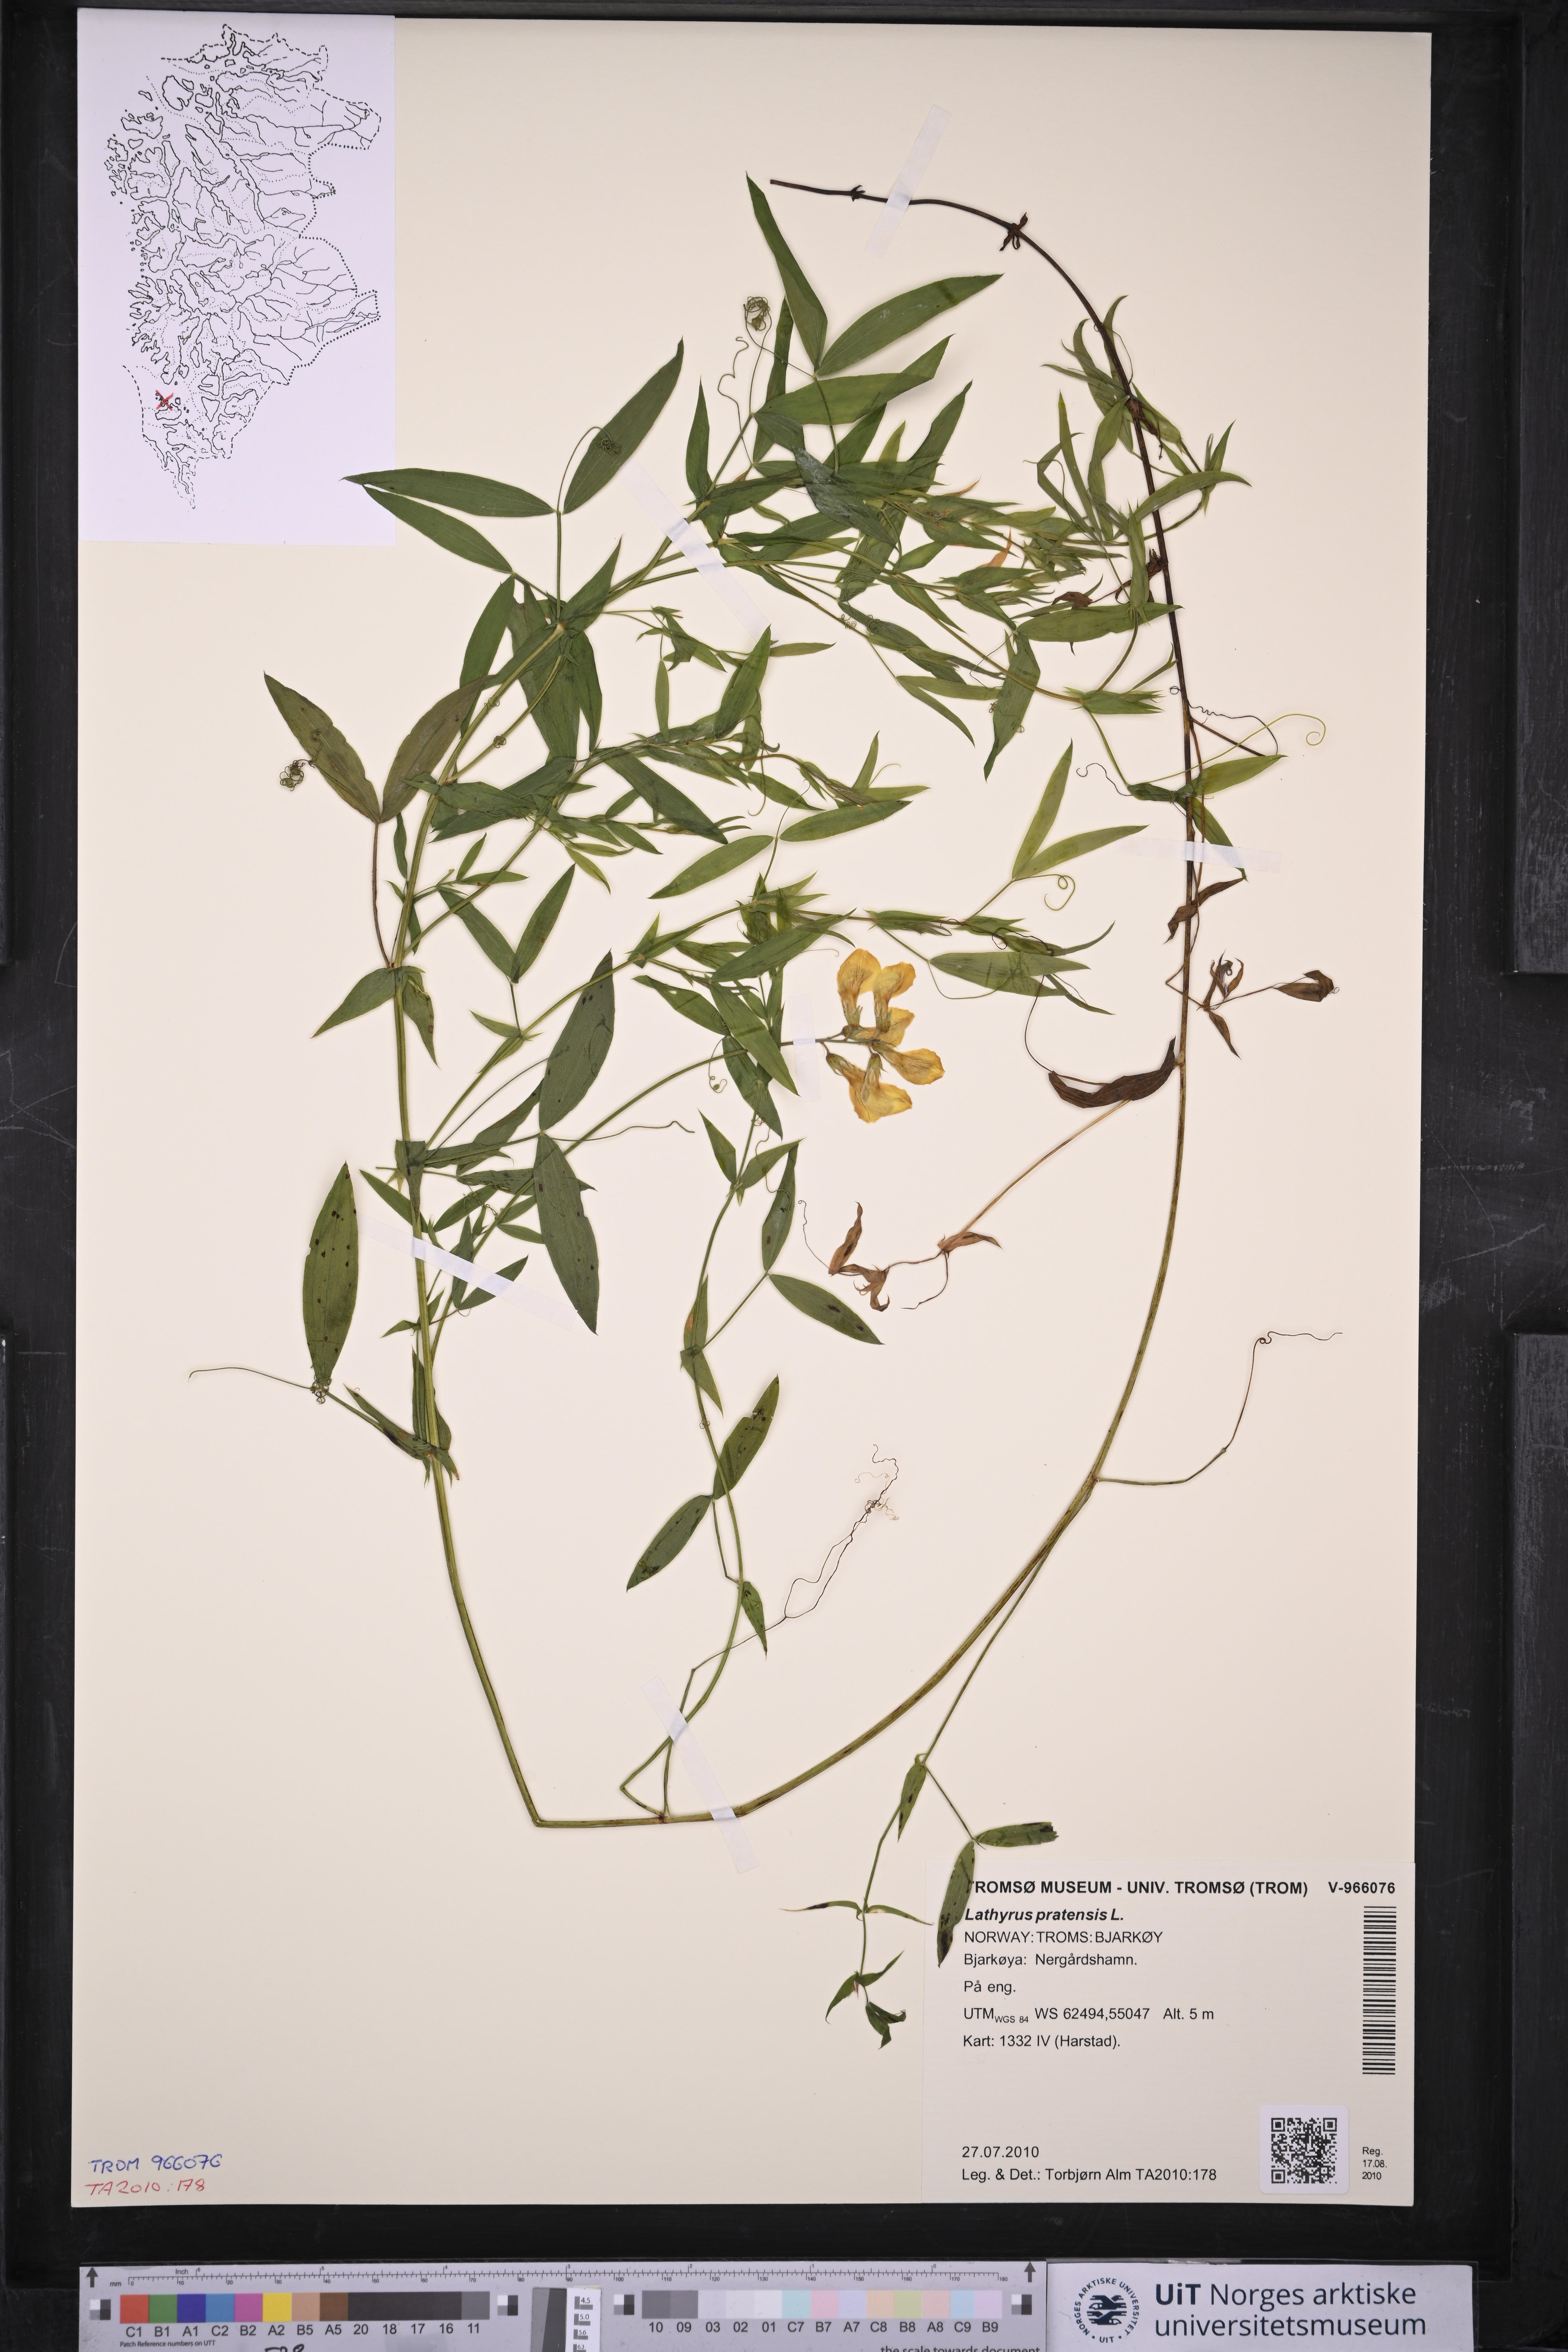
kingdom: Plantae
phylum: Tracheophyta
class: Magnoliopsida
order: Fabales
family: Fabaceae
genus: Lathyrus
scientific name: Lathyrus pratensis
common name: Meadow vetchling
